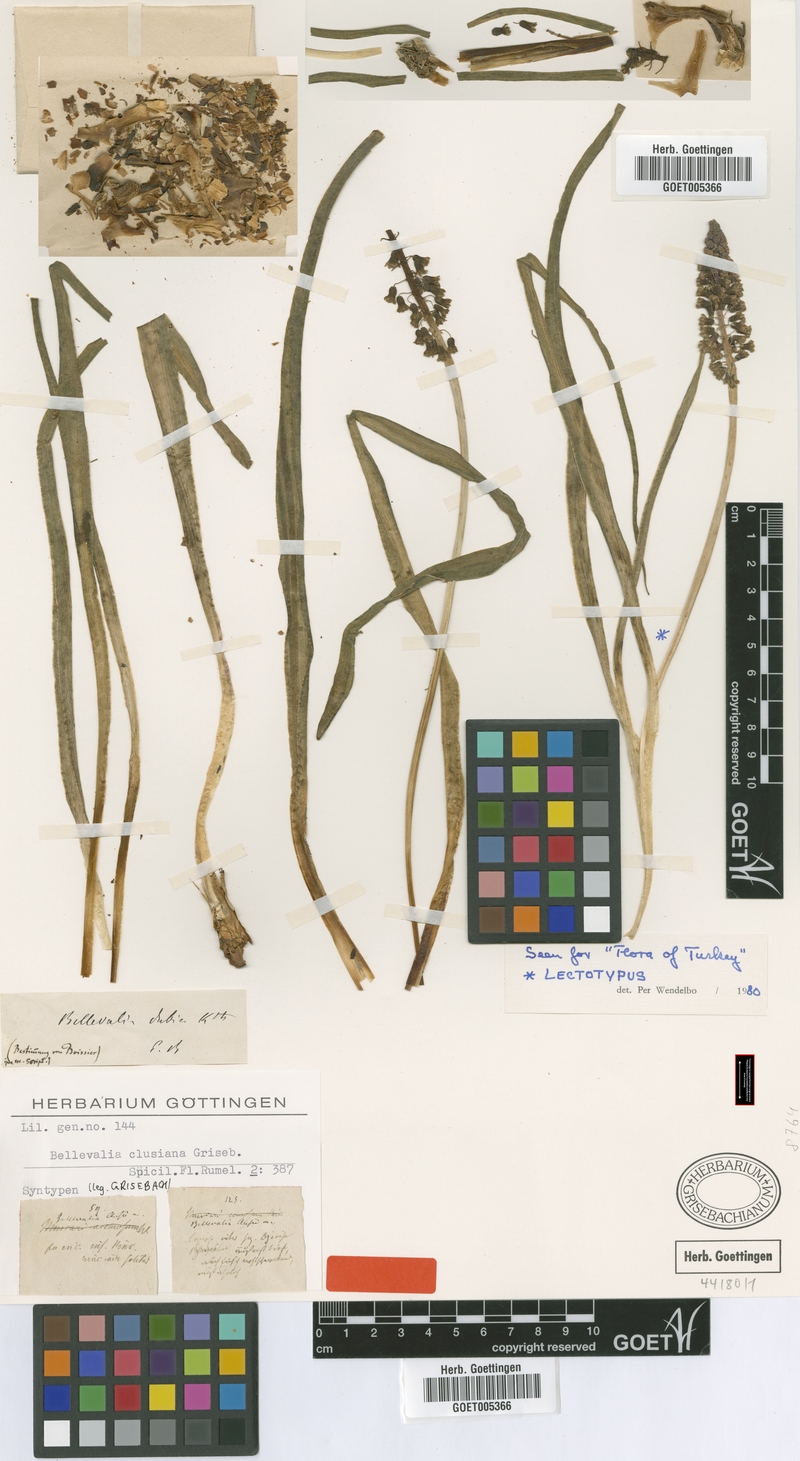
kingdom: Plantae
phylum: Tracheophyta
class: Liliopsida
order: Asparagales
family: Asparagaceae
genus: Bellevalia
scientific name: Bellevalia clusiana
